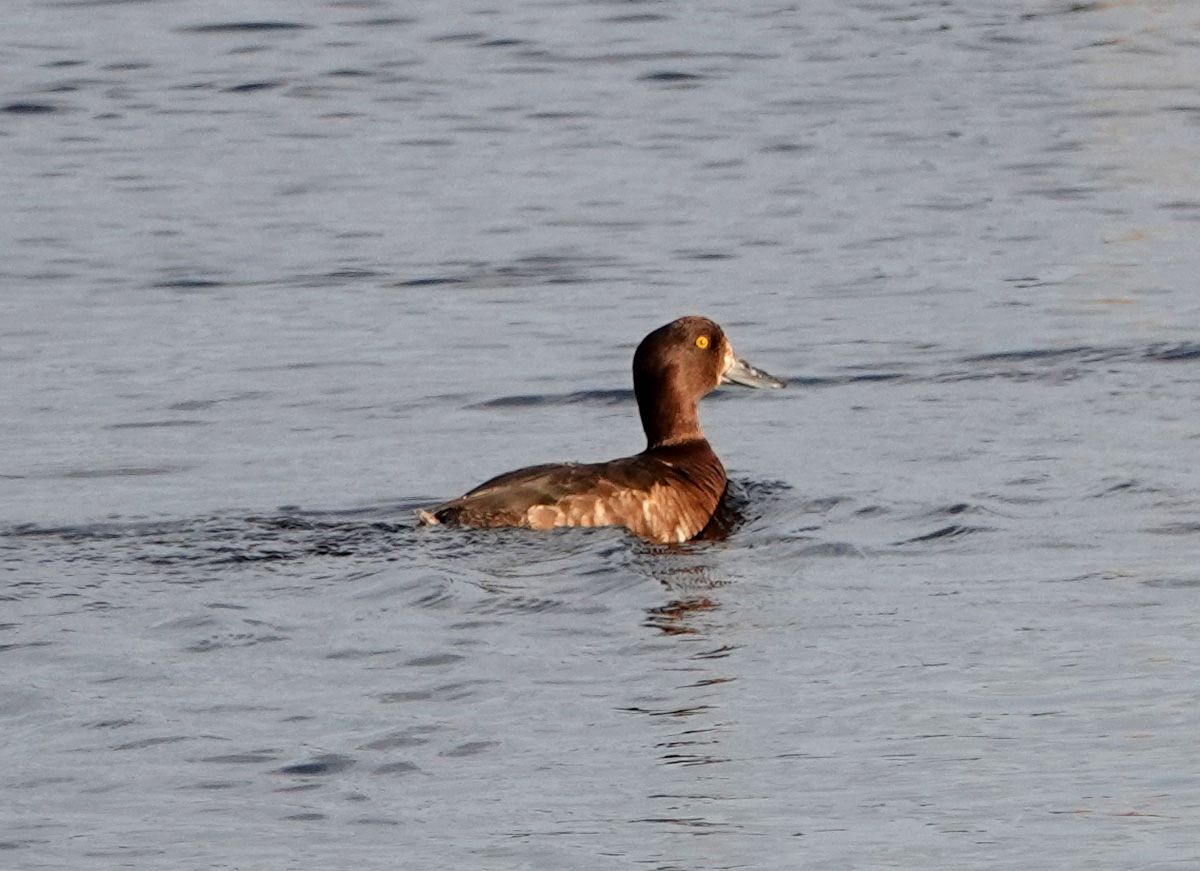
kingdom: Animalia
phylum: Chordata
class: Aves
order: Anseriformes
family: Anatidae
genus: Aythya
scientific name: Aythya fuligula
